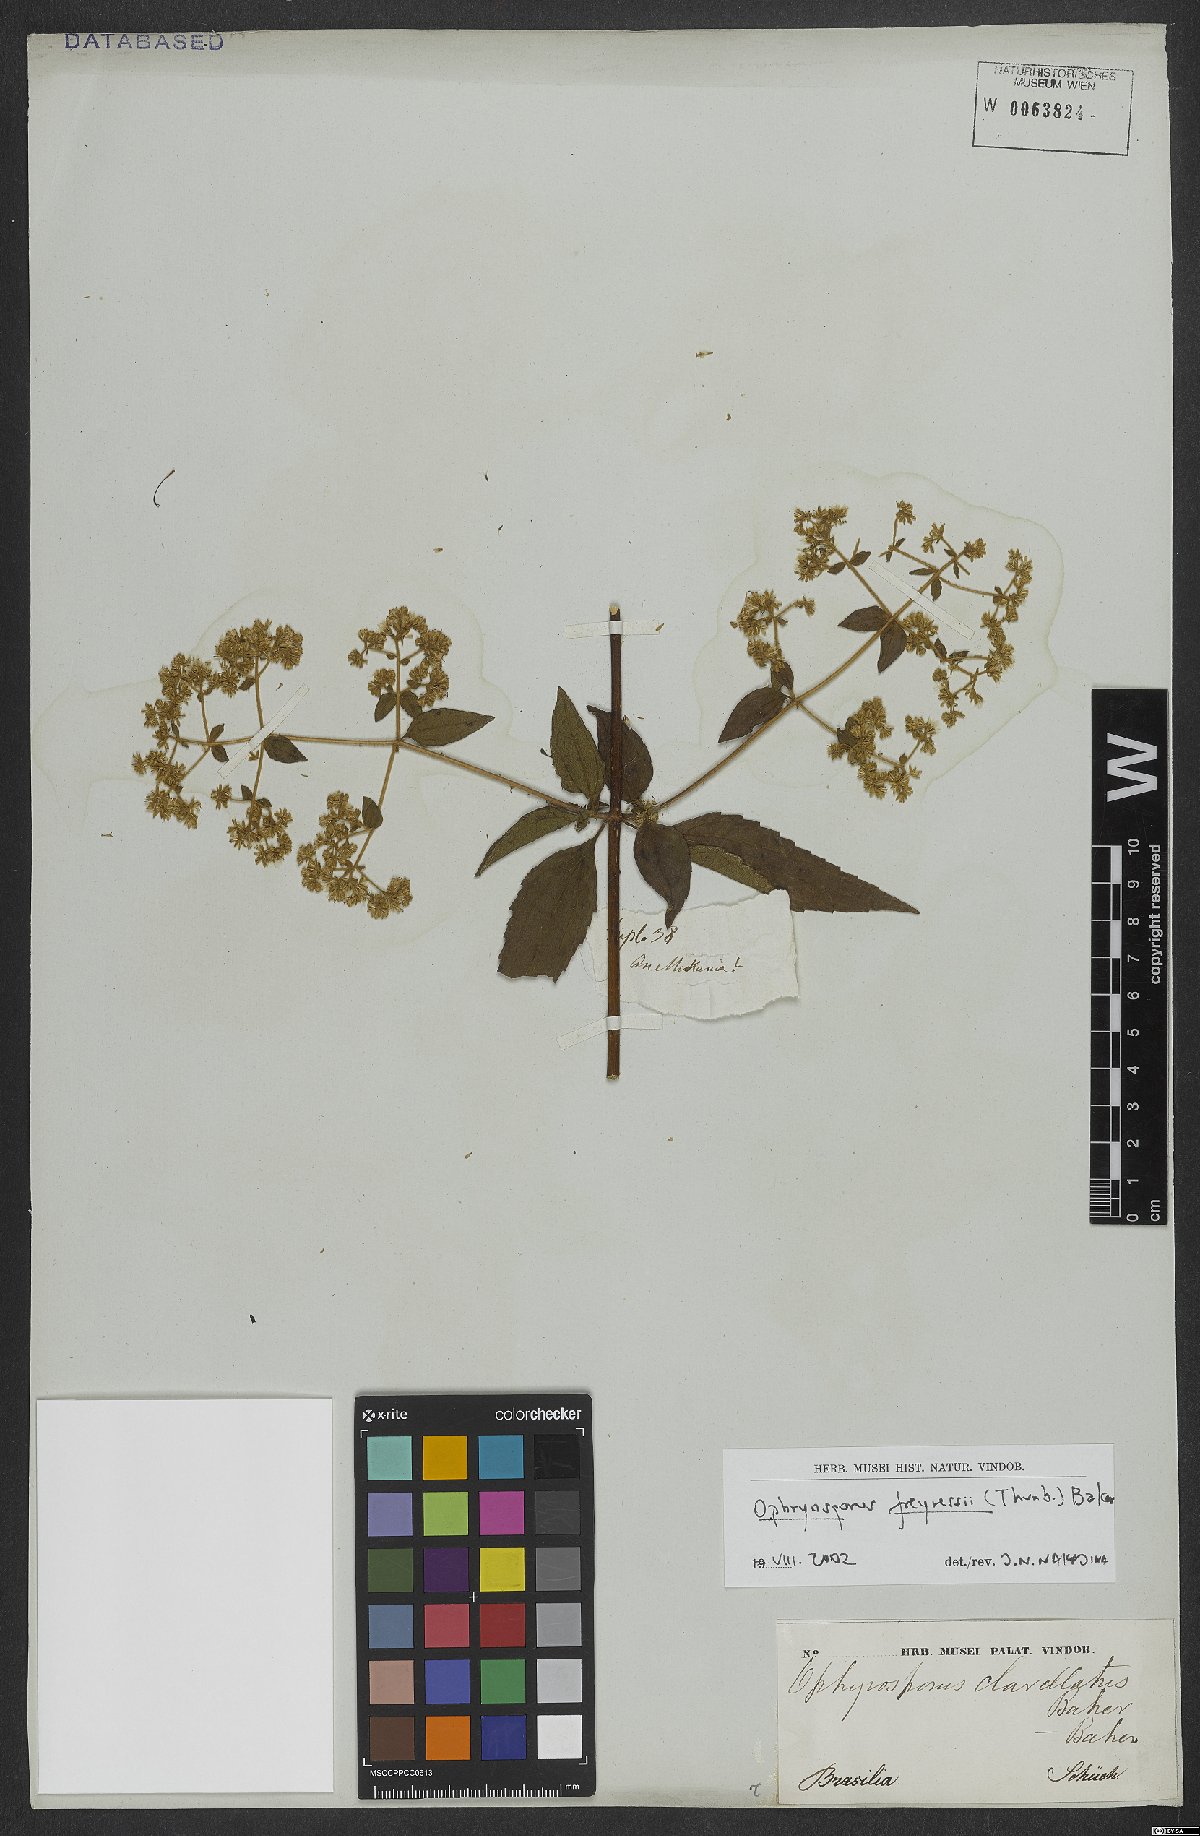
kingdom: Plantae
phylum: Tracheophyta
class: Magnoliopsida
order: Asterales
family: Asteraceae
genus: Ophryosporus
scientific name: Ophryosporus freyreysi
